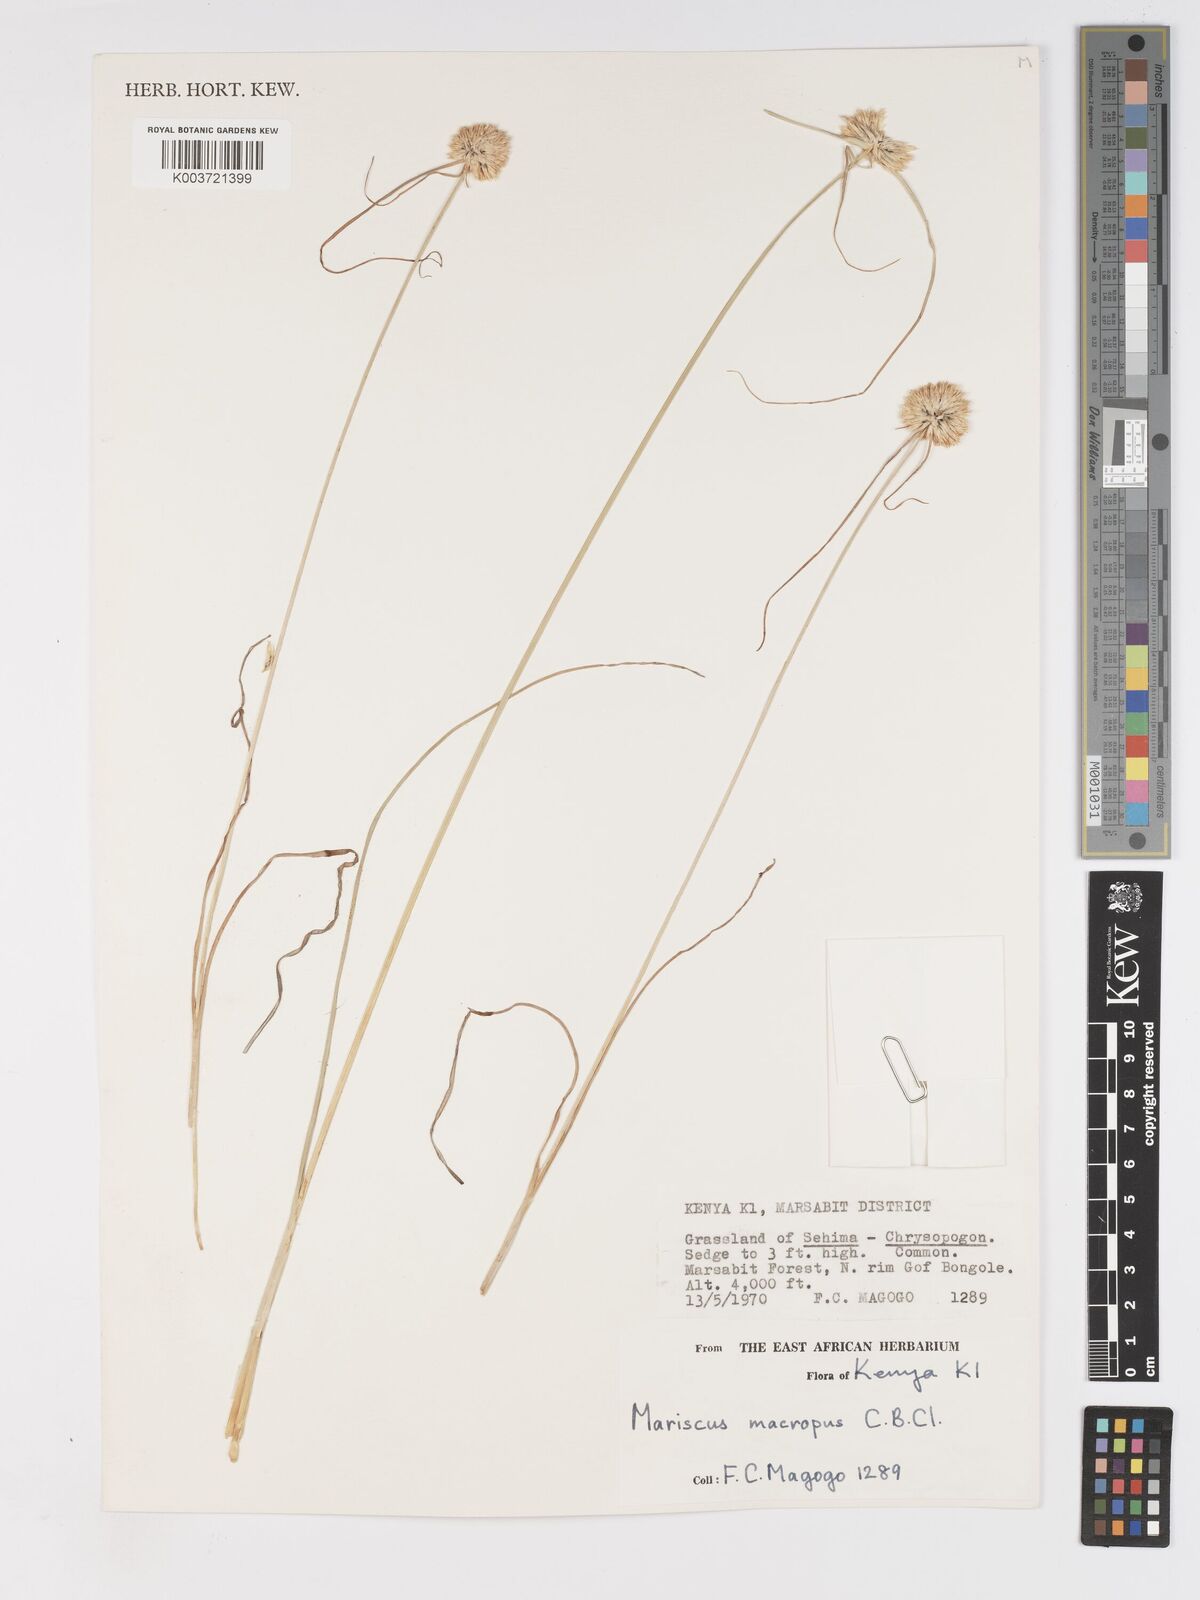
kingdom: Plantae
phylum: Tracheophyta
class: Liliopsida
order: Poales
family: Cyperaceae
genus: Cyperus
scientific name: Cyperus mollipes
